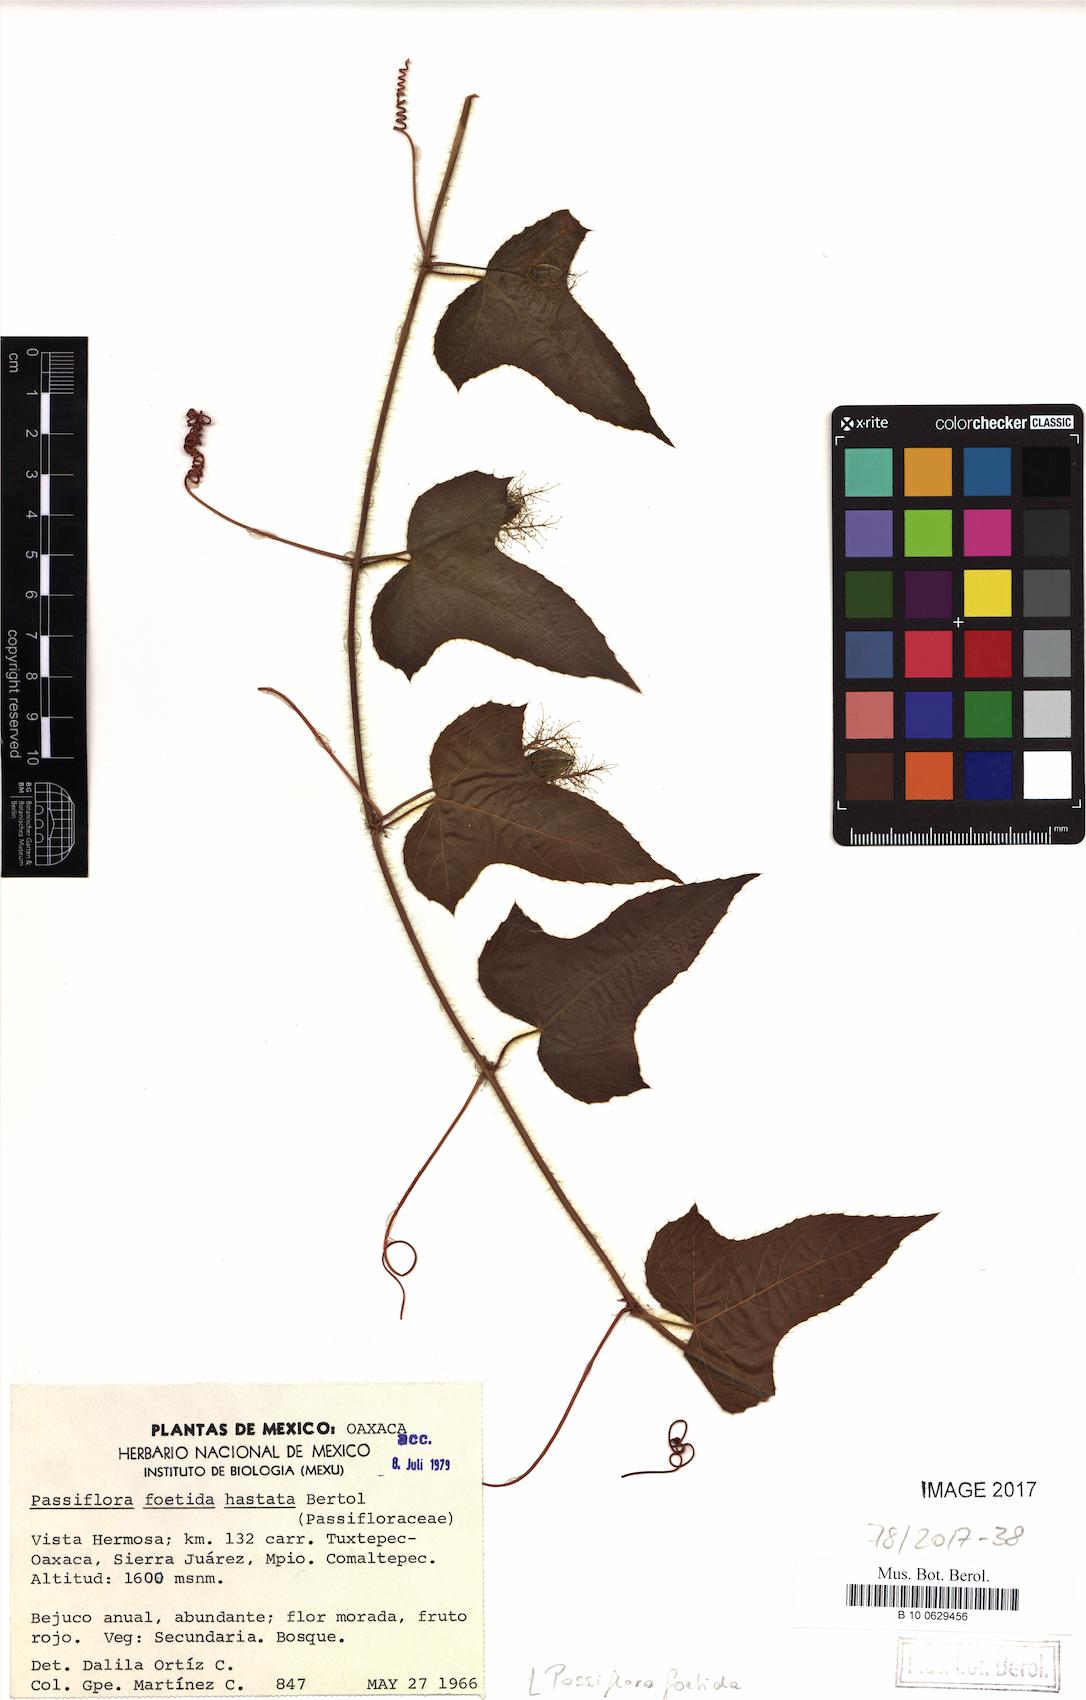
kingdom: Plantae
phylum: Tracheophyta
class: Magnoliopsida
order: Malpighiales
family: Passifloraceae
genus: Passiflora
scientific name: Passiflora foetida
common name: Fetid passionflower
